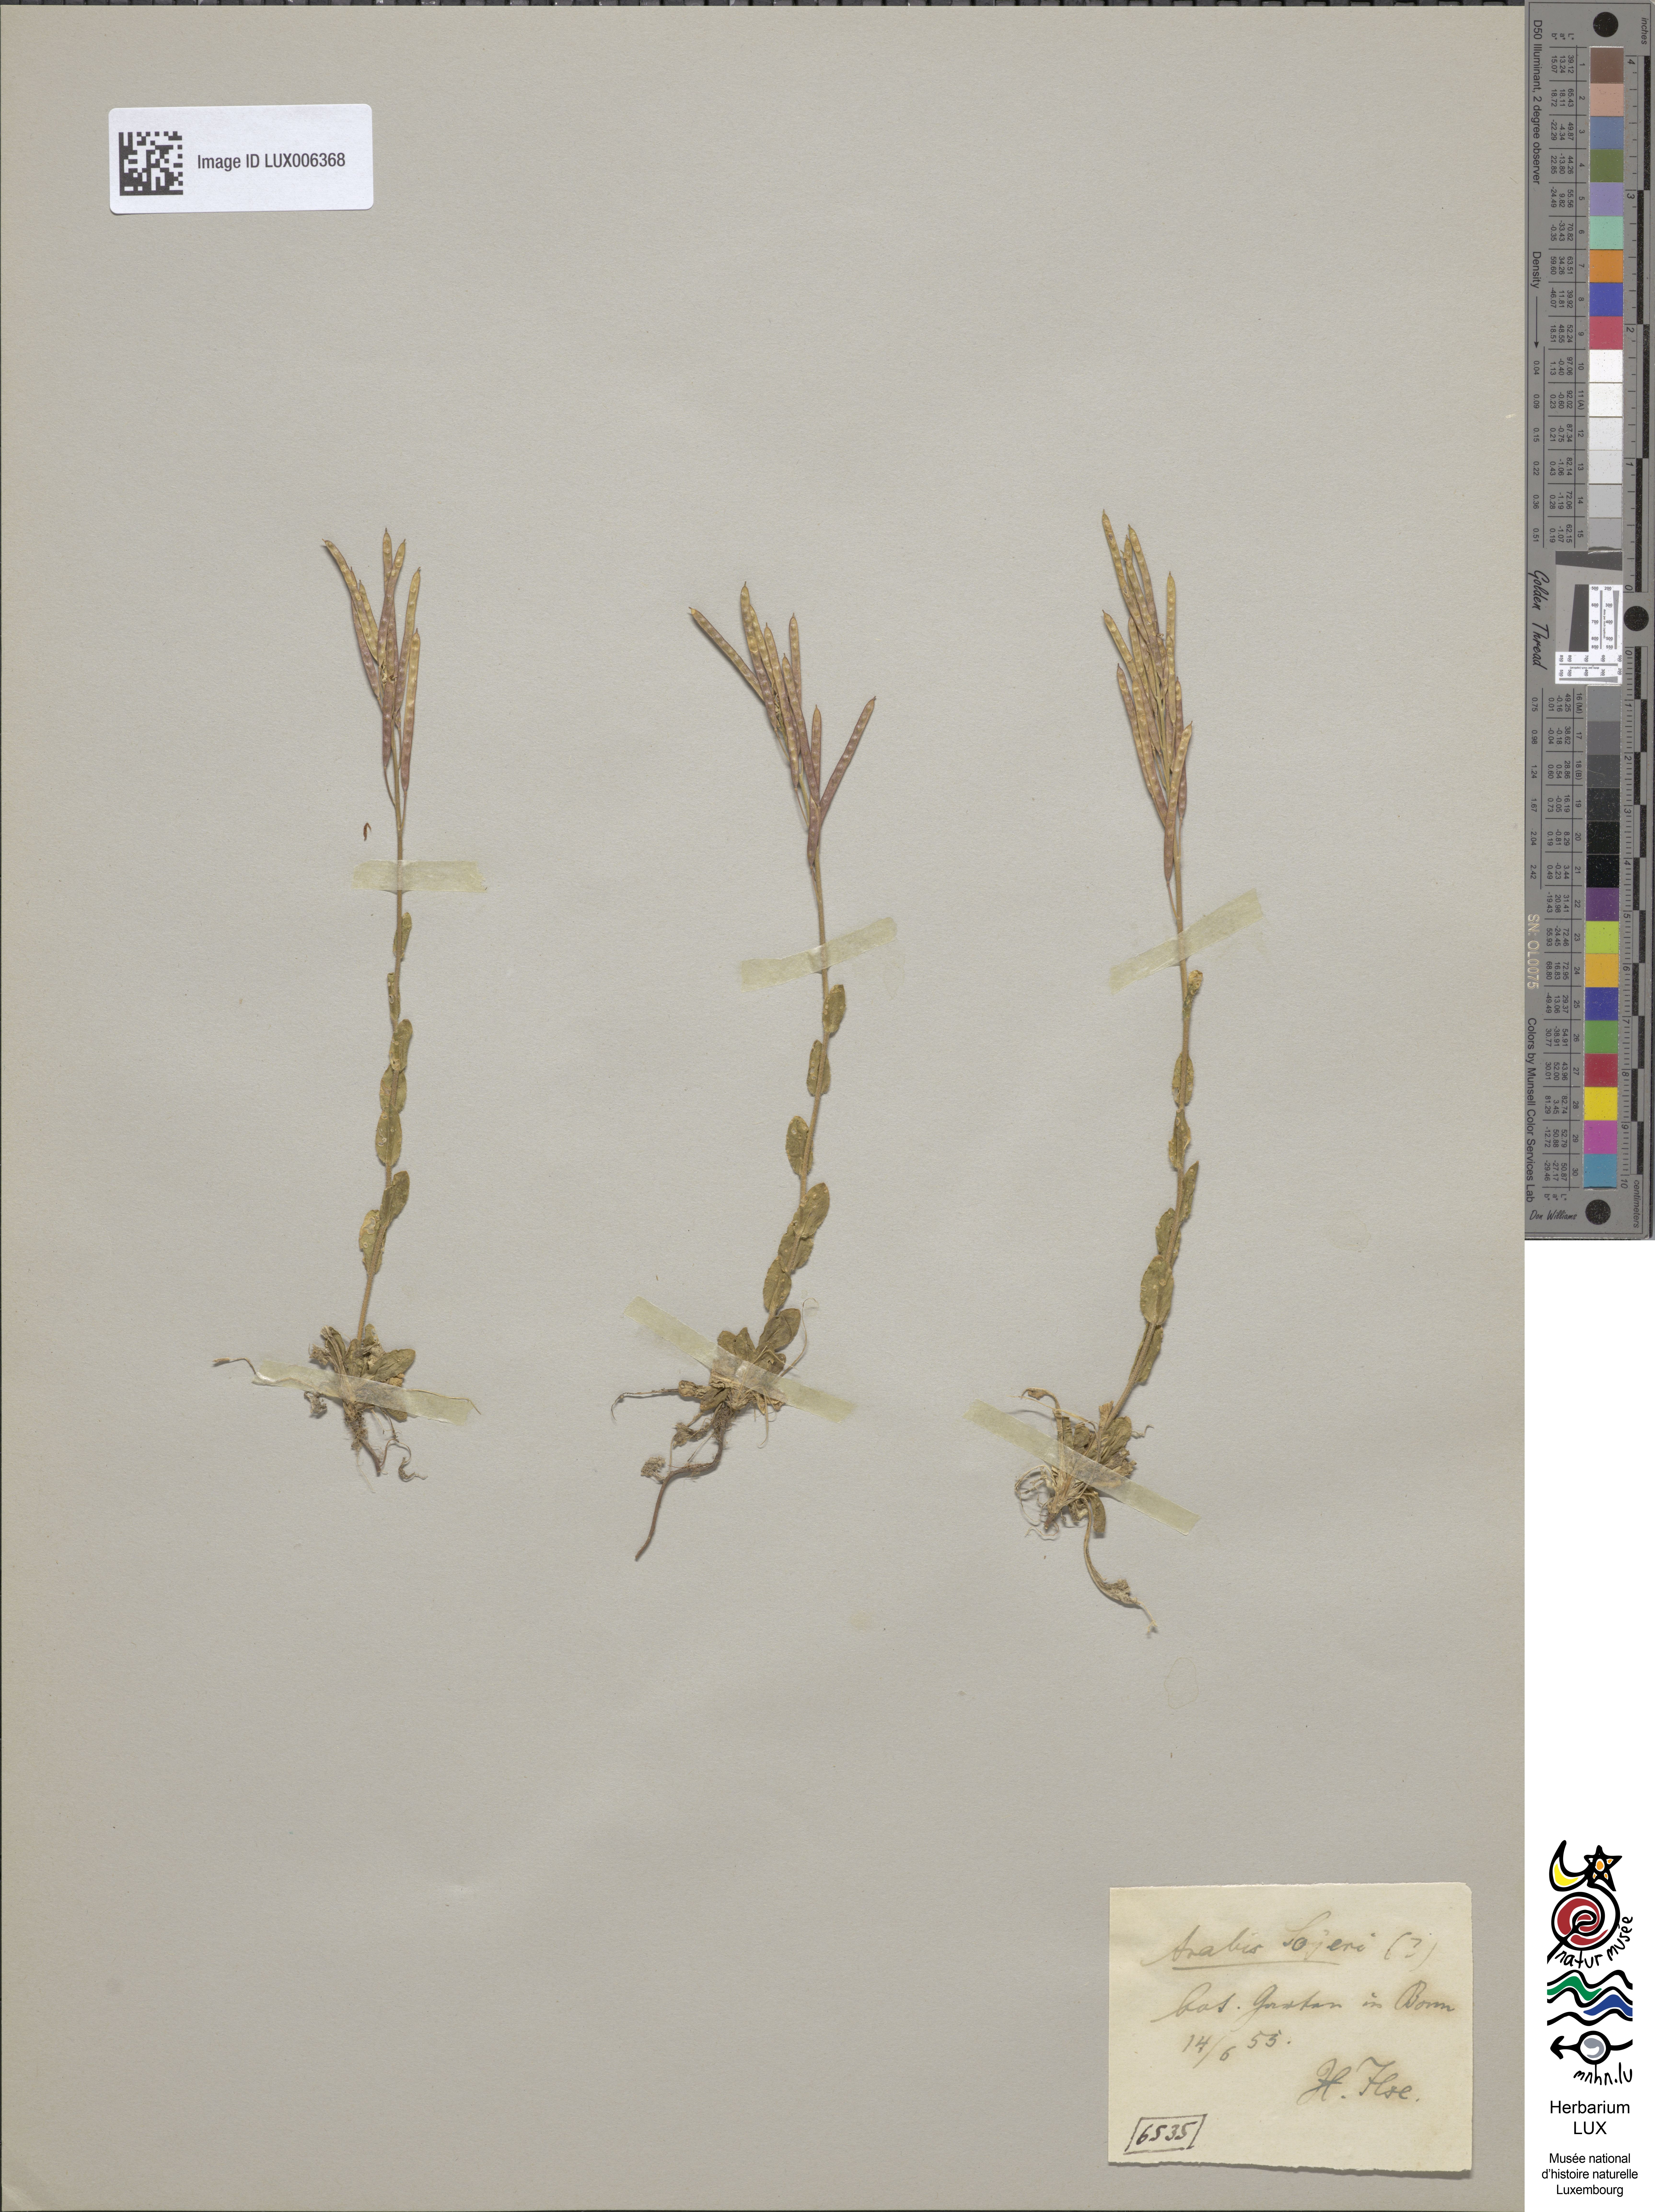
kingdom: Plantae
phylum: Tracheophyta
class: Magnoliopsida
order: Brassicales
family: Brassicaceae
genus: Arabis
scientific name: Arabis soyeri
